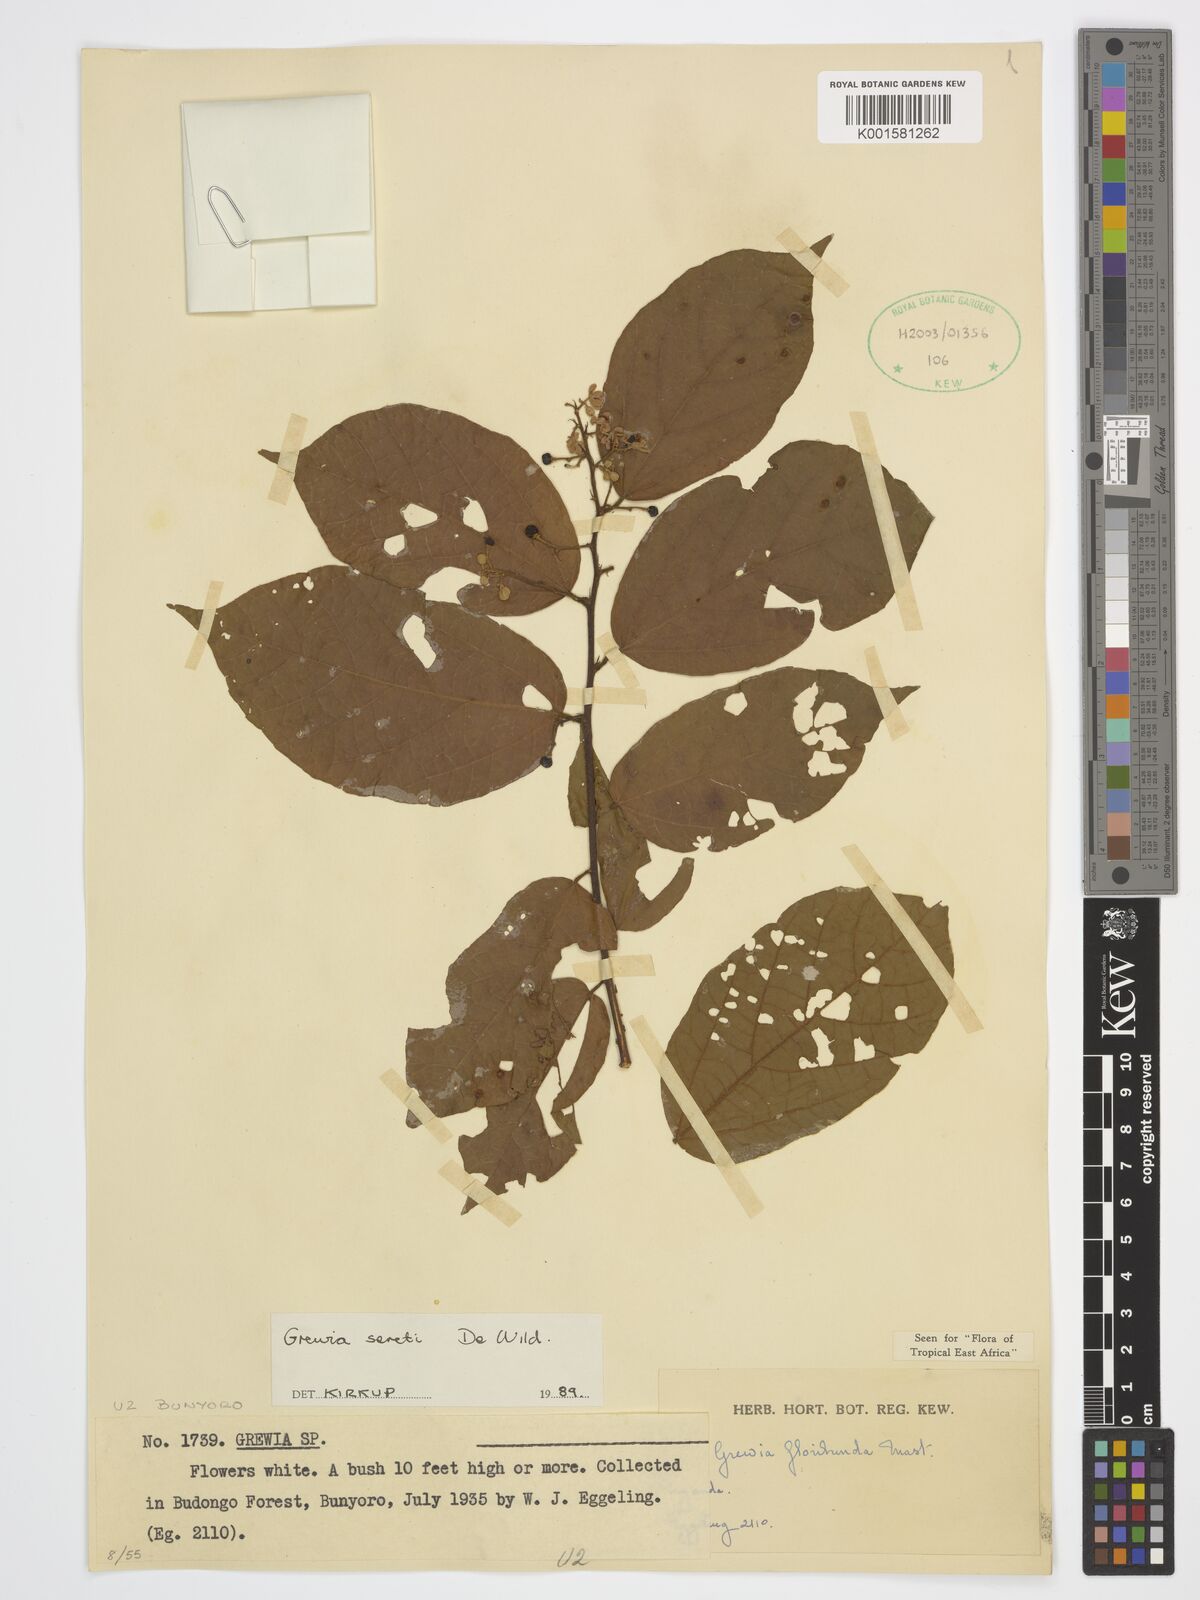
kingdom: Plantae
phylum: Tracheophyta
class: Magnoliopsida
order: Malvales
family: Malvaceae
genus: Microcos
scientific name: Microcos seretii
